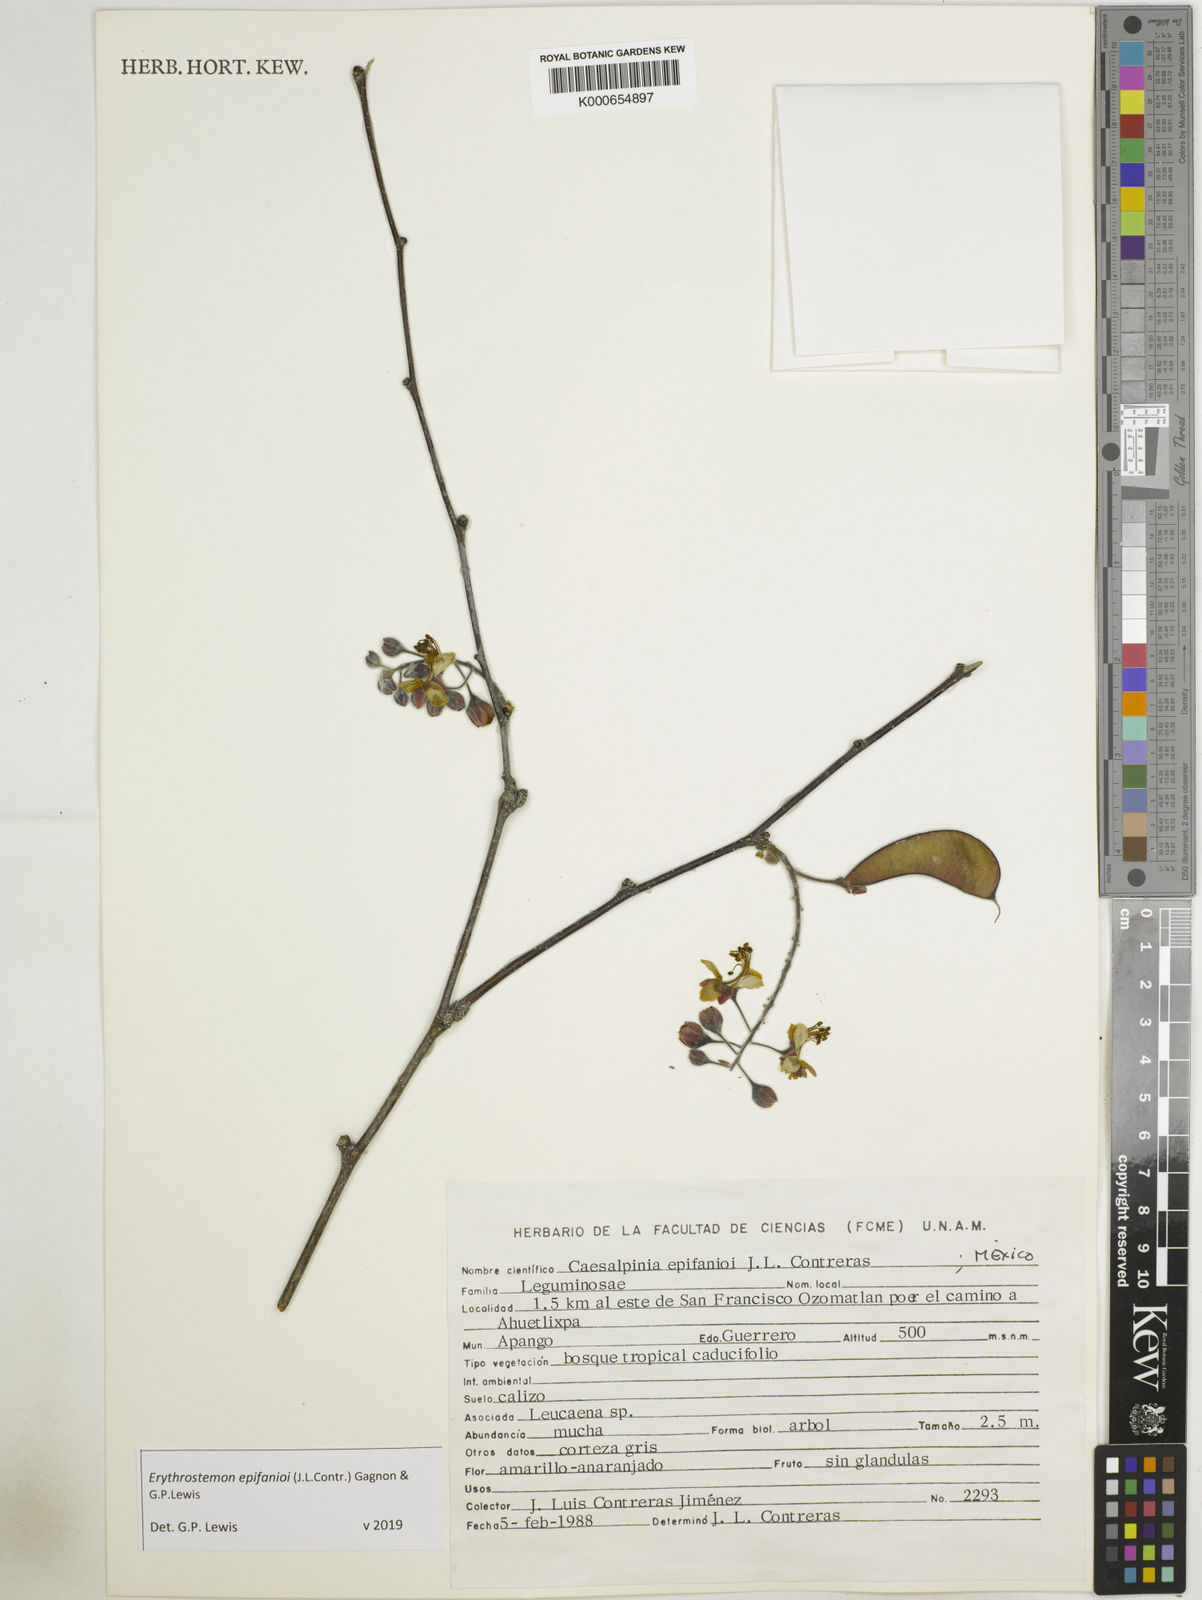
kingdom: Plantae
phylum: Tracheophyta
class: Magnoliopsida
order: Fabales
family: Fabaceae
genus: Erythrostemon
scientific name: Erythrostemon epifanioi
